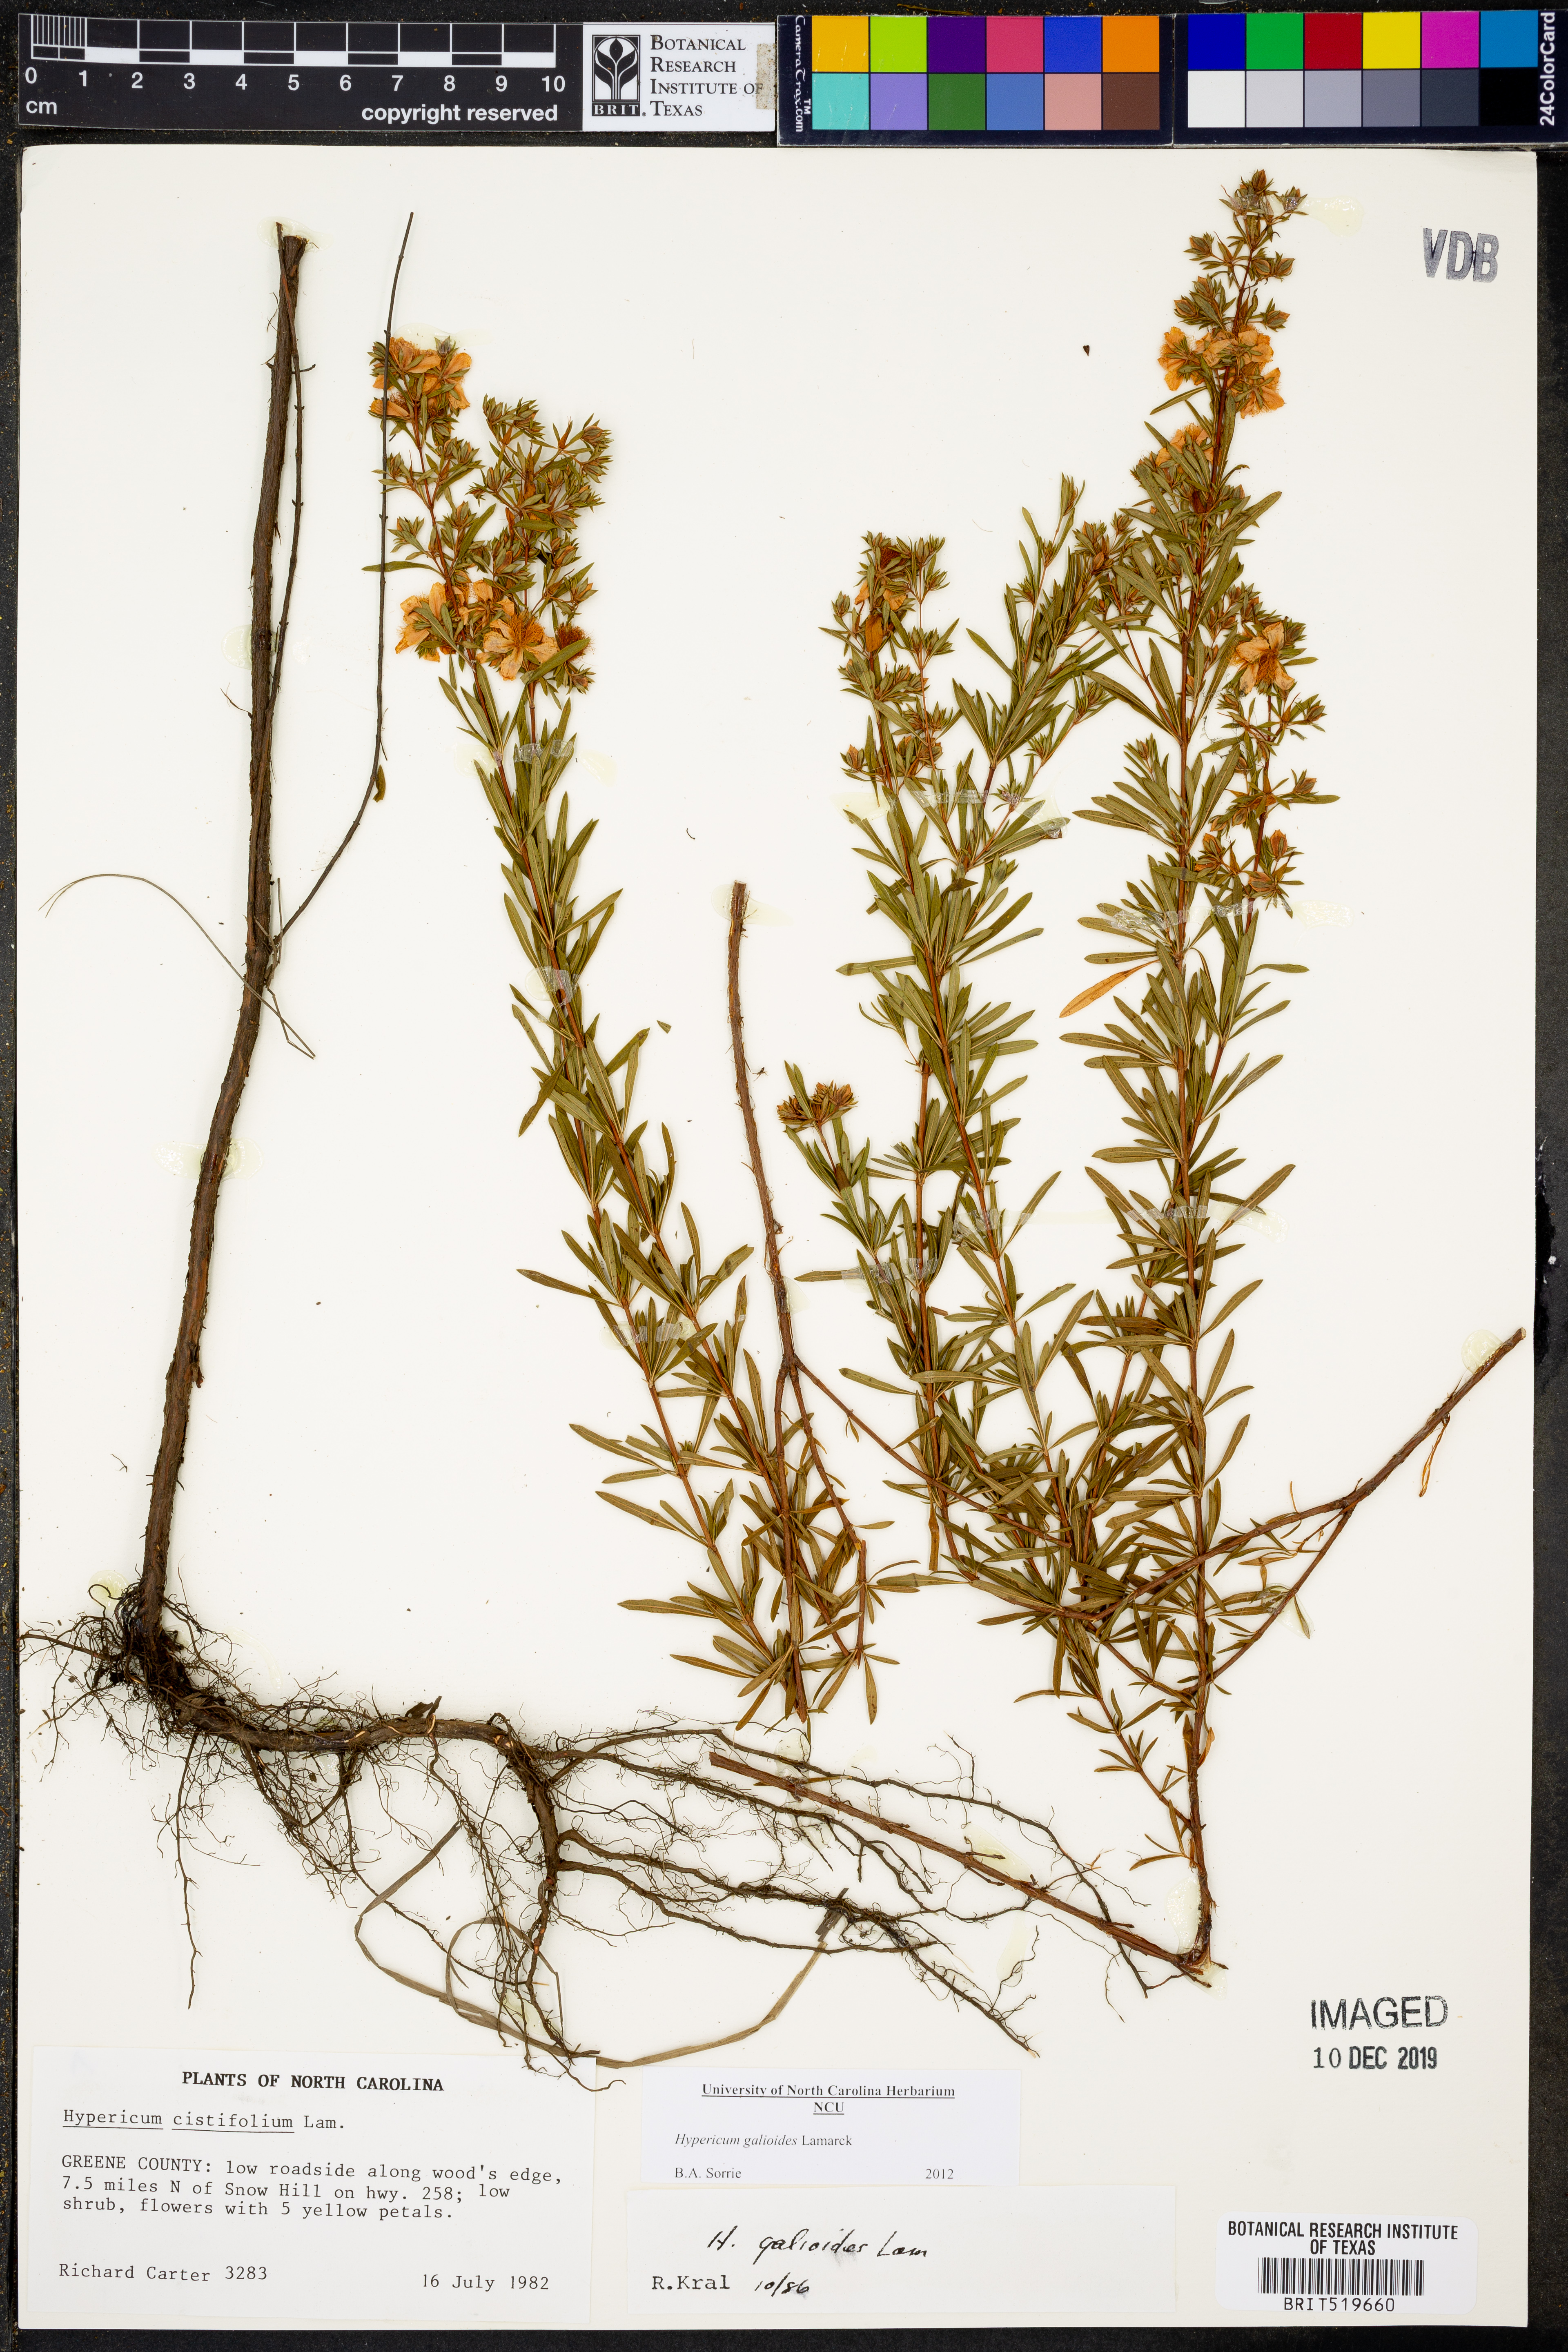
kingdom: Plantae
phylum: Tracheophyta
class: Magnoliopsida
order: Malpighiales
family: Hypericaceae
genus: Hypericum
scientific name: Hypericum galioides
